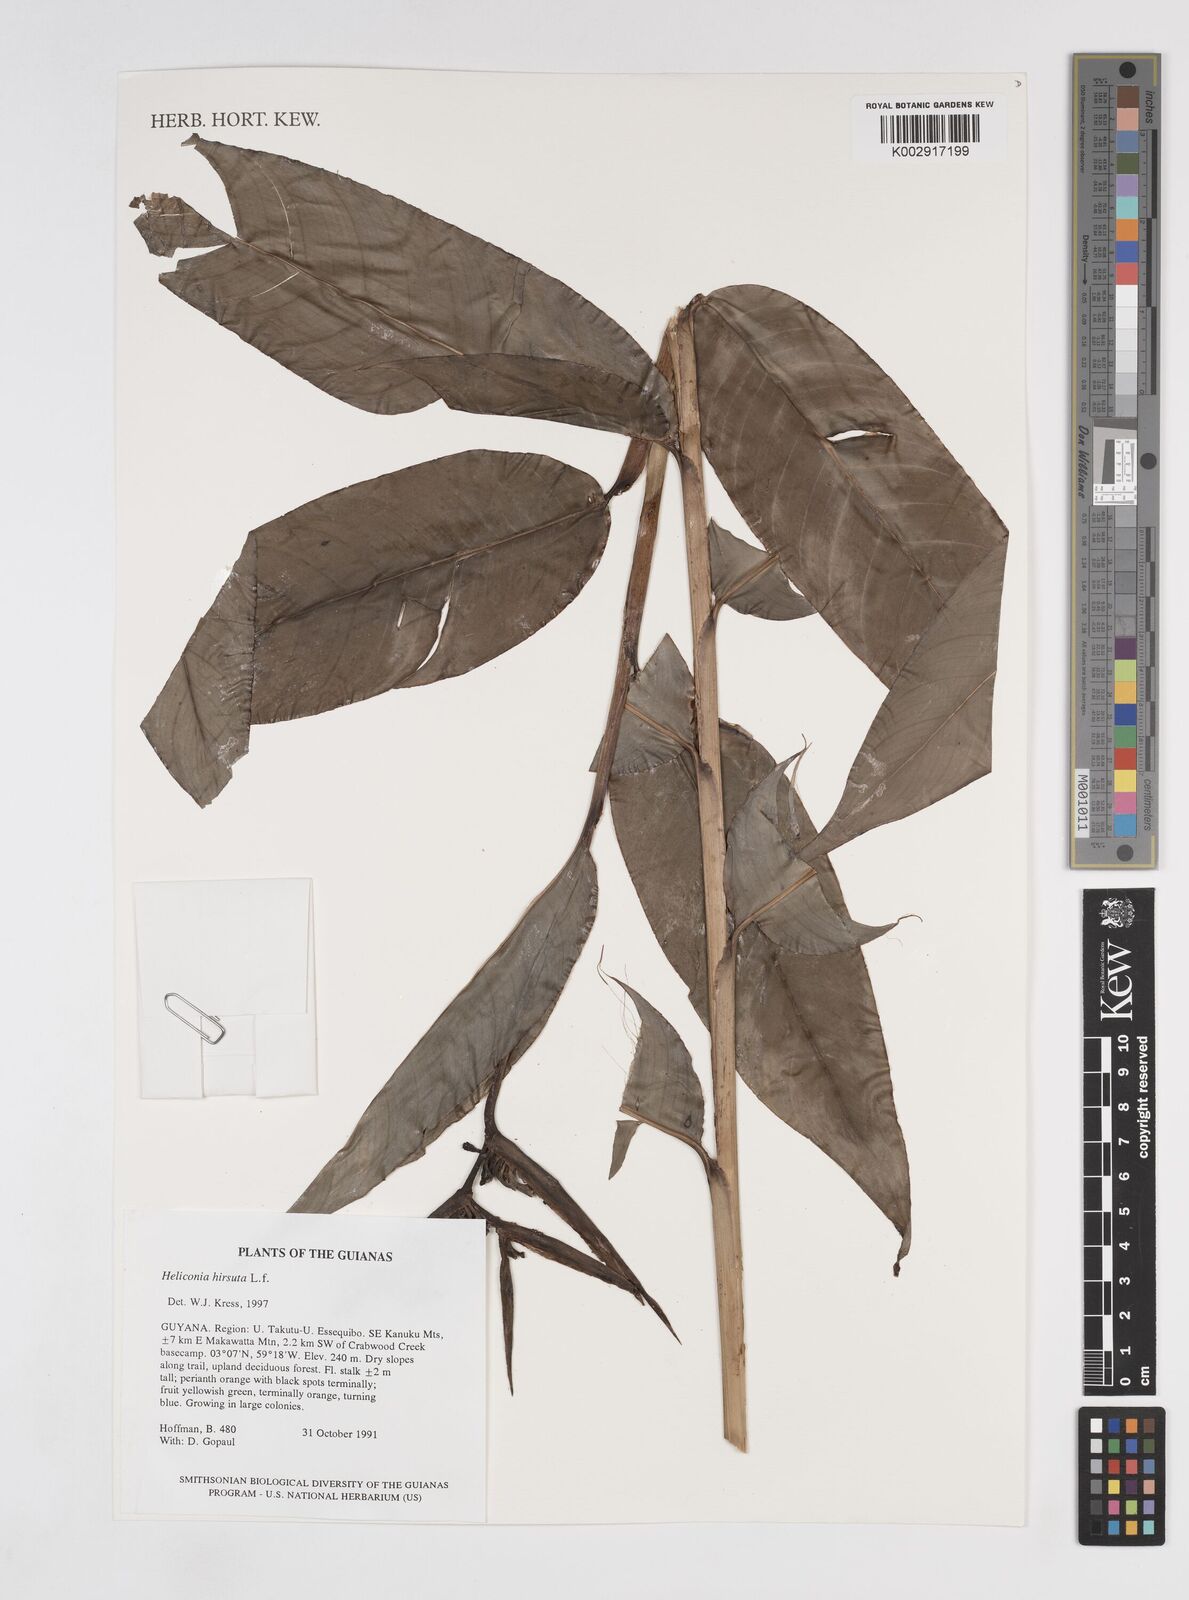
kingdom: Plantae
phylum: Tracheophyta
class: Liliopsida
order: Zingiberales
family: Heliconiaceae
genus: Heliconia
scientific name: Heliconia hirsuta
